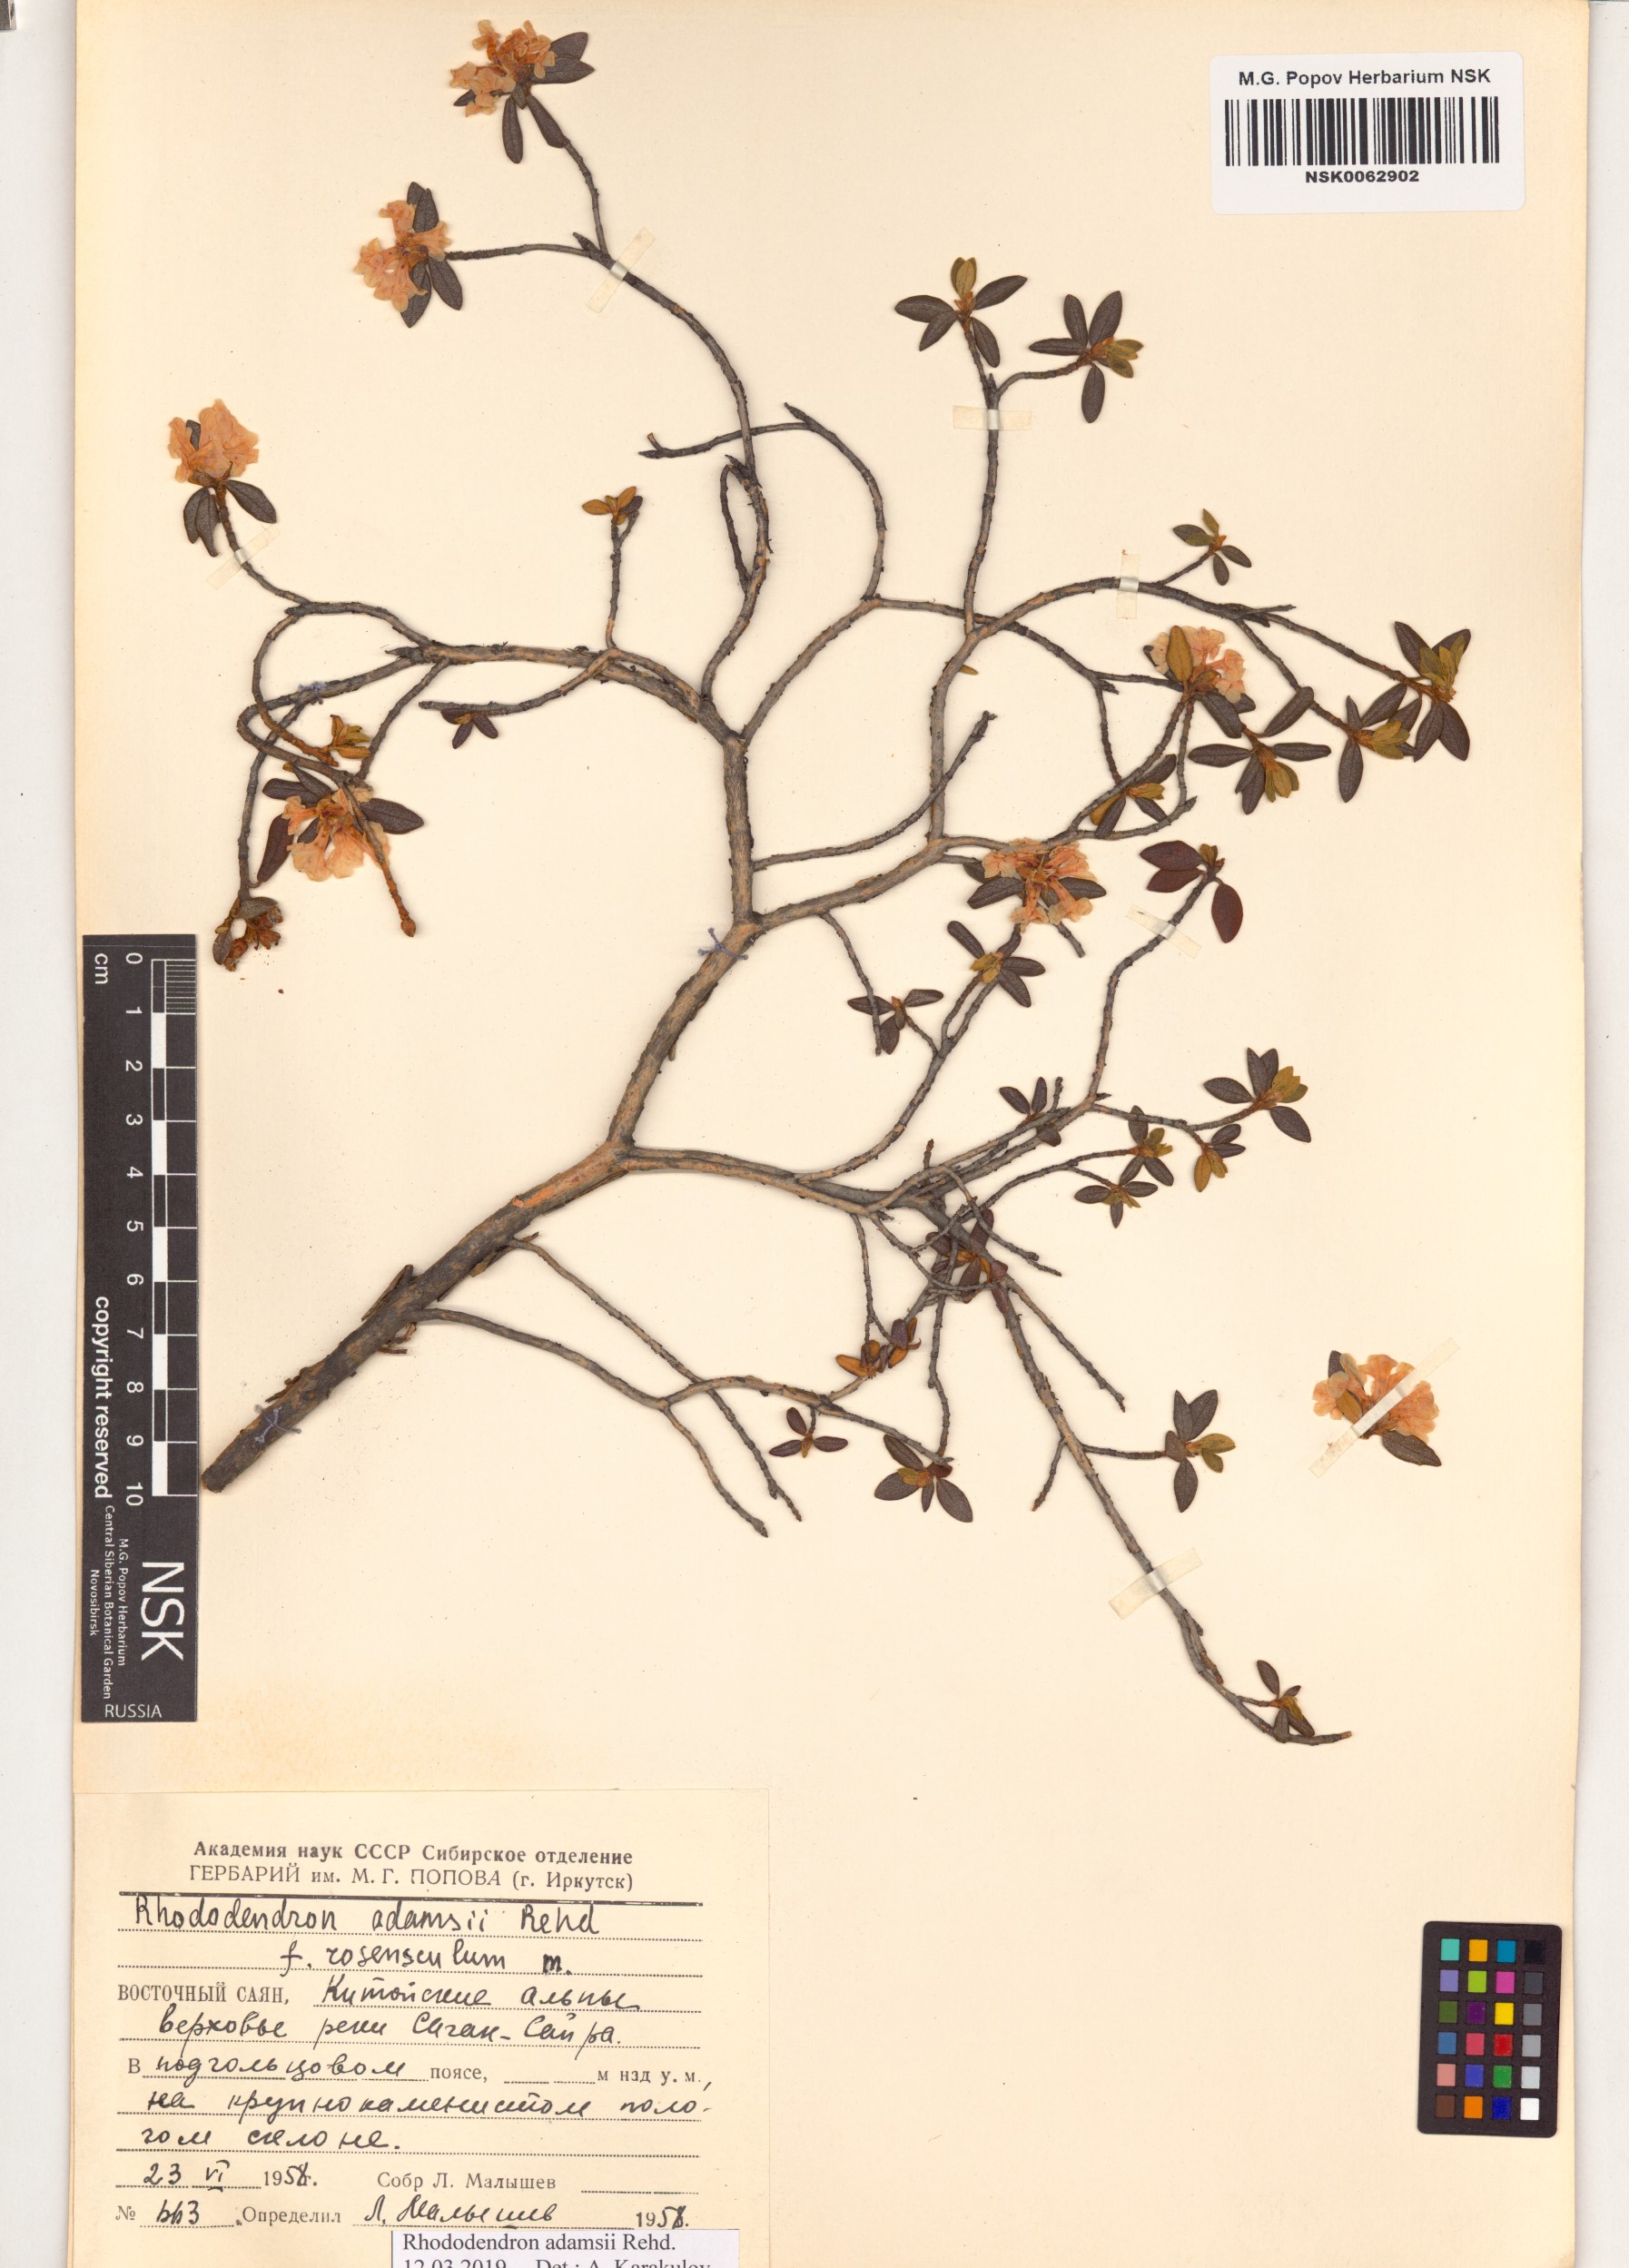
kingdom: Plantae
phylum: Tracheophyta
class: Magnoliopsida
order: Ericales
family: Ericaceae
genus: Rhododendron
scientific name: Rhododendron adamsii
